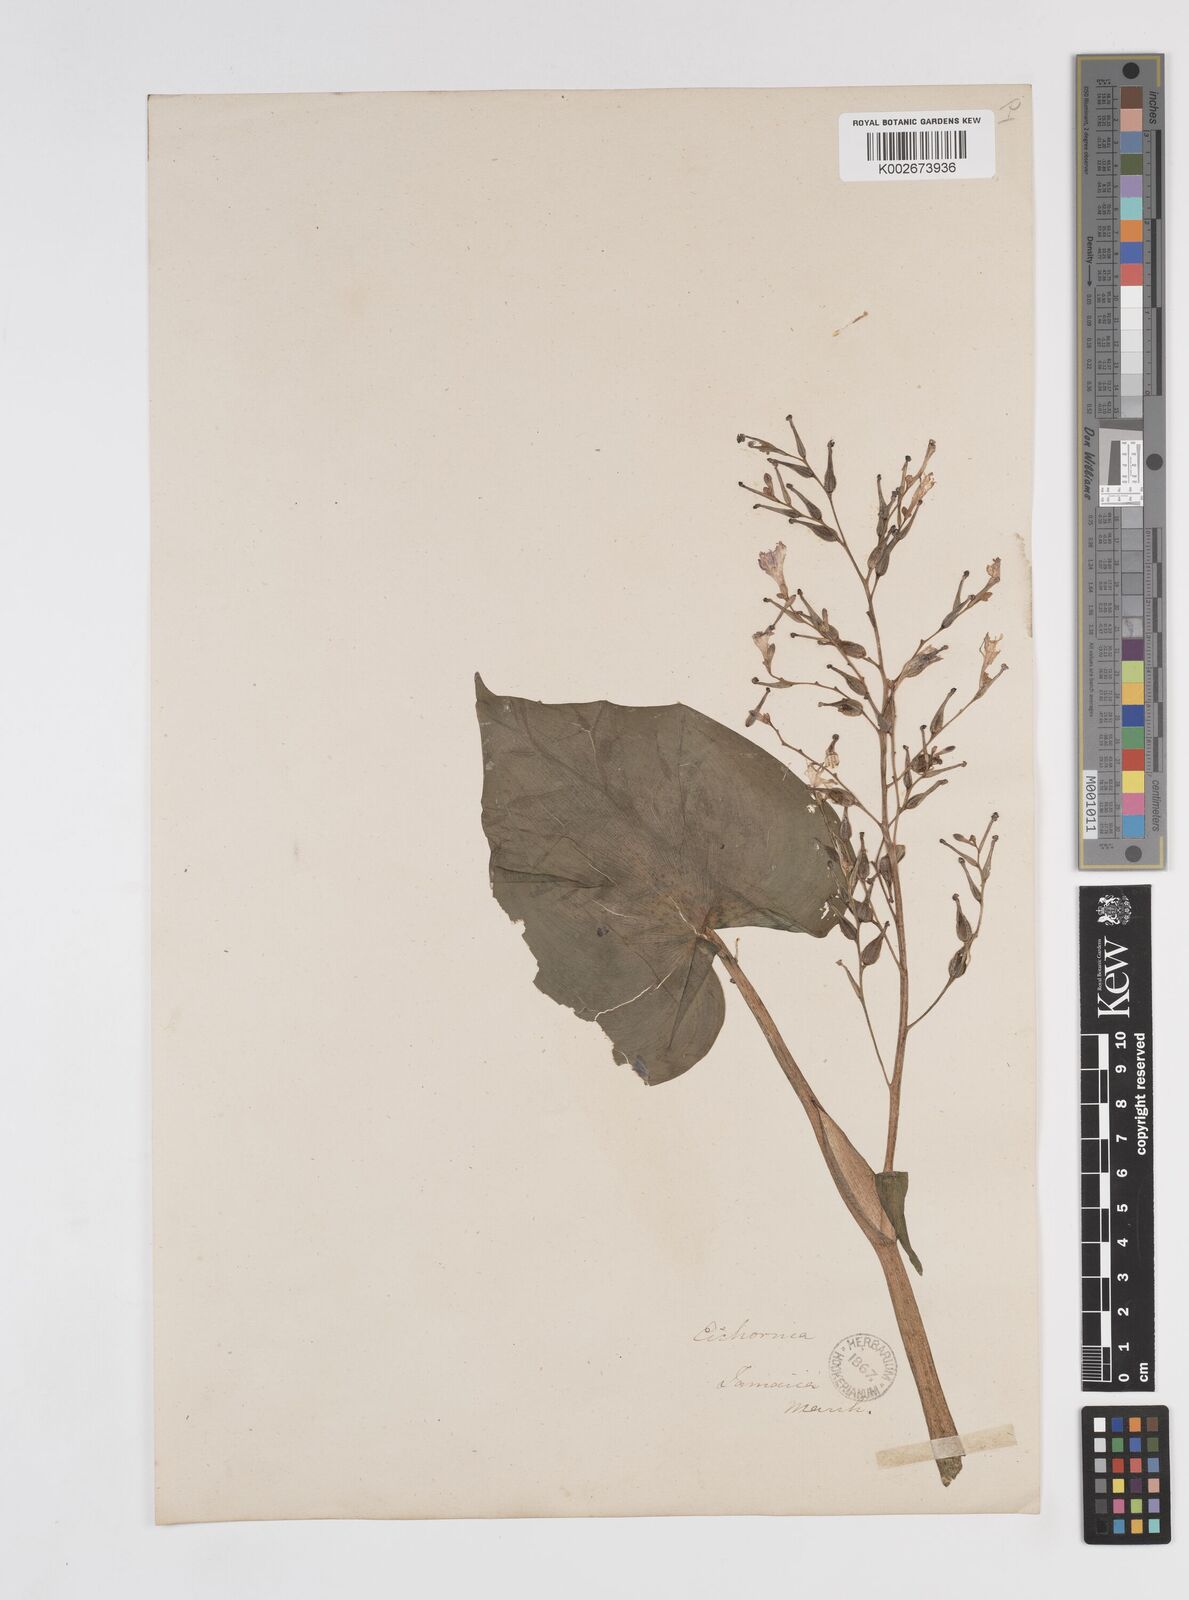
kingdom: Plantae
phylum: Tracheophyta
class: Liliopsida
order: Commelinales
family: Pontederiaceae
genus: Pontederia
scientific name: Pontederia paniculata
